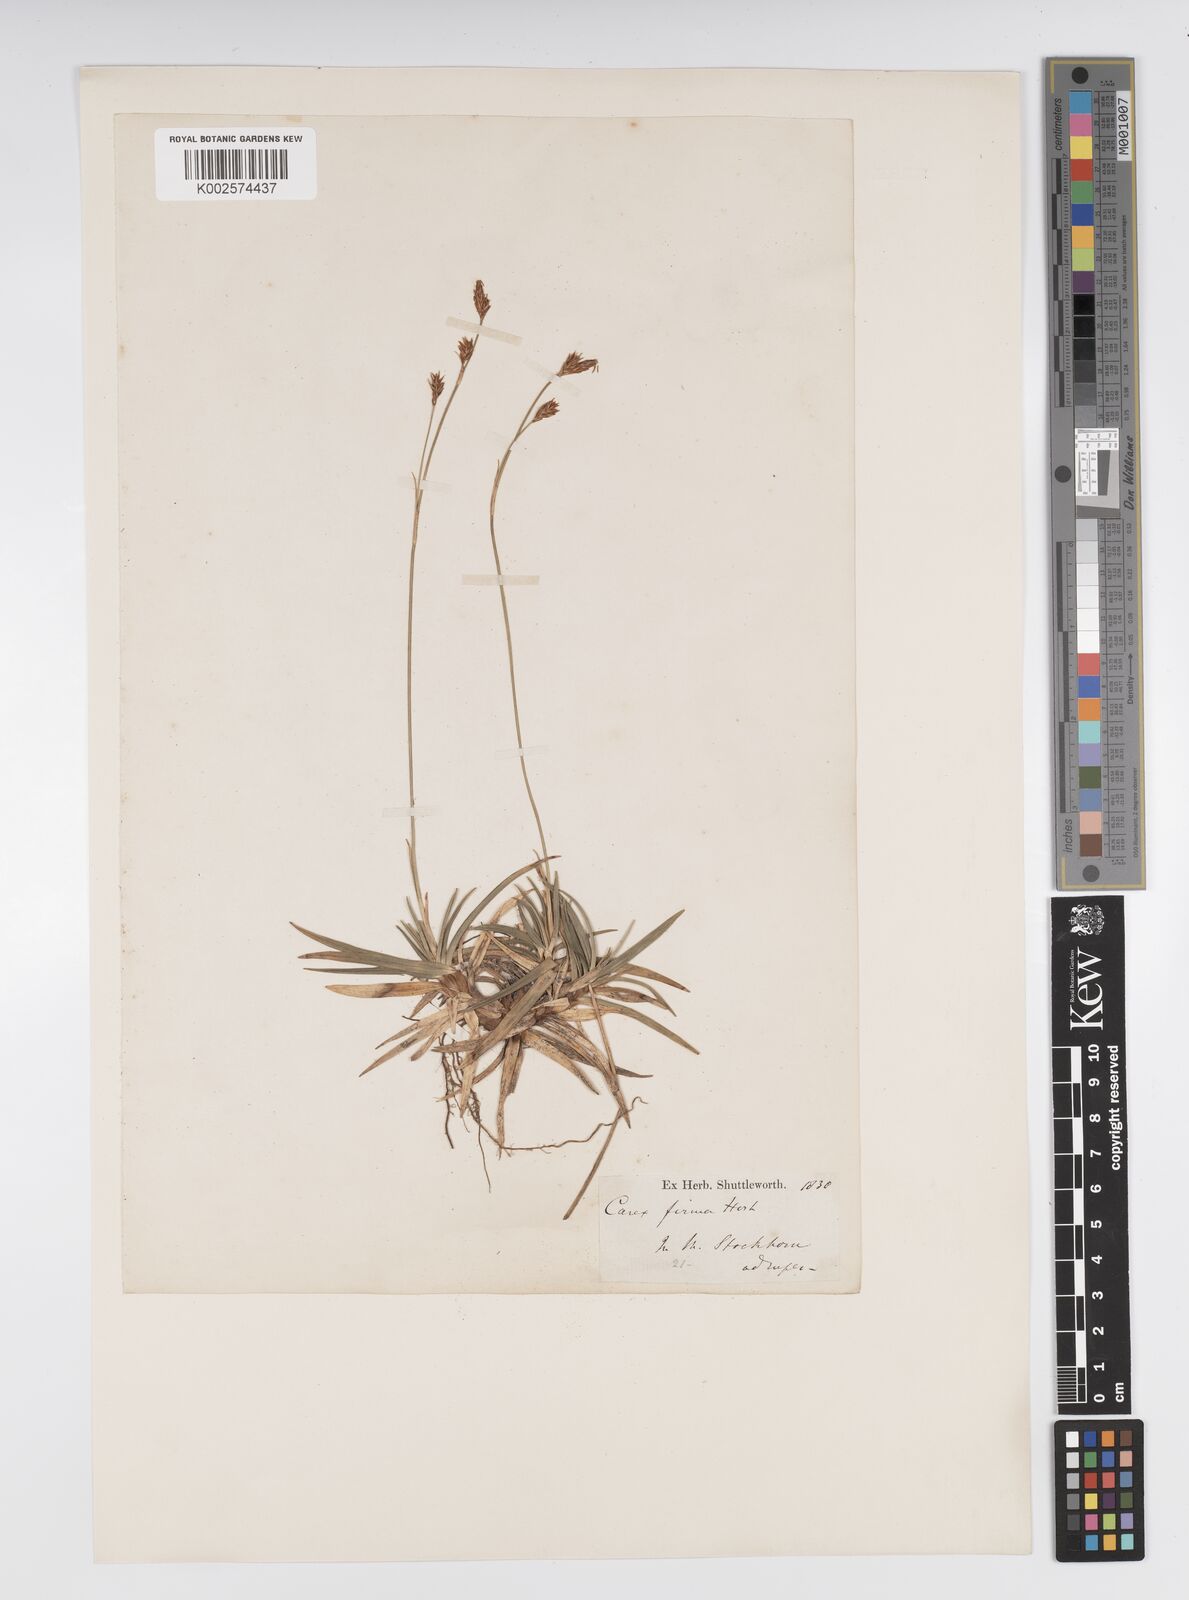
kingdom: Plantae
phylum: Tracheophyta
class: Liliopsida
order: Poales
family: Cyperaceae
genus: Carex
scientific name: Carex firma
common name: Dwarf pillow sedge
